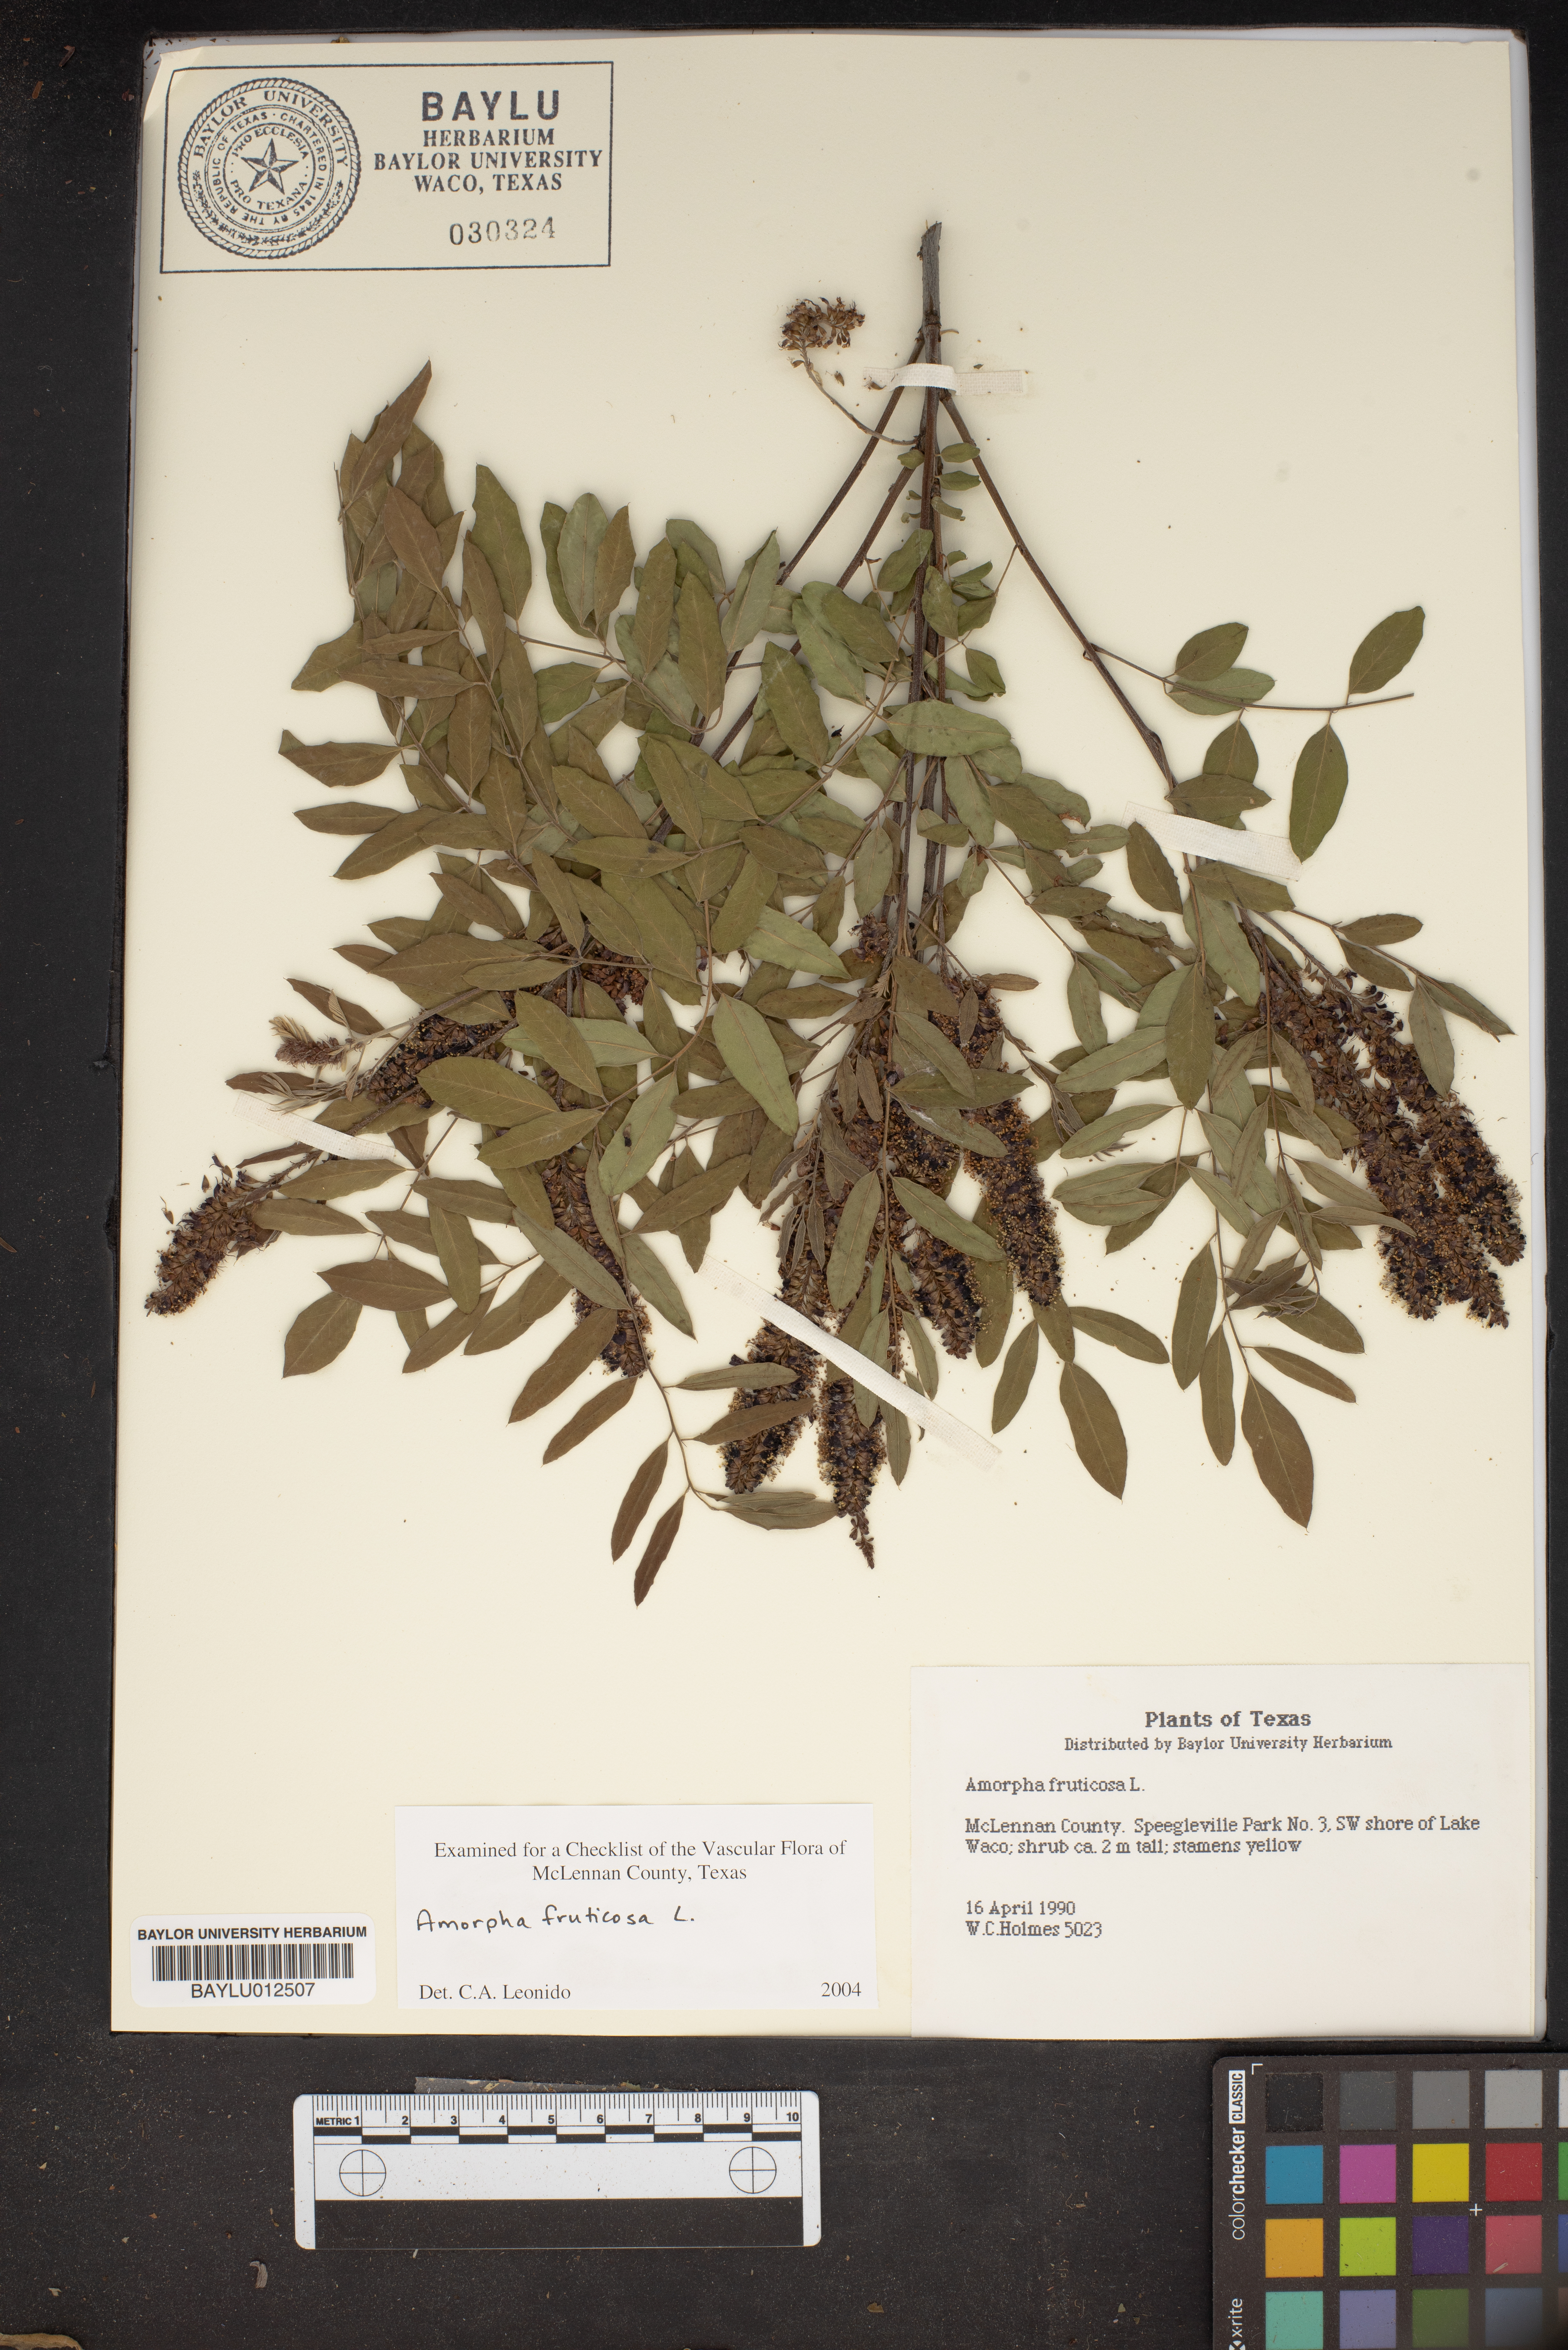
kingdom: Plantae
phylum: Tracheophyta
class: Magnoliopsida
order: Fabales
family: Fabaceae
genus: Amorpha
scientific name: Amorpha fruticosa
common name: False indigo
